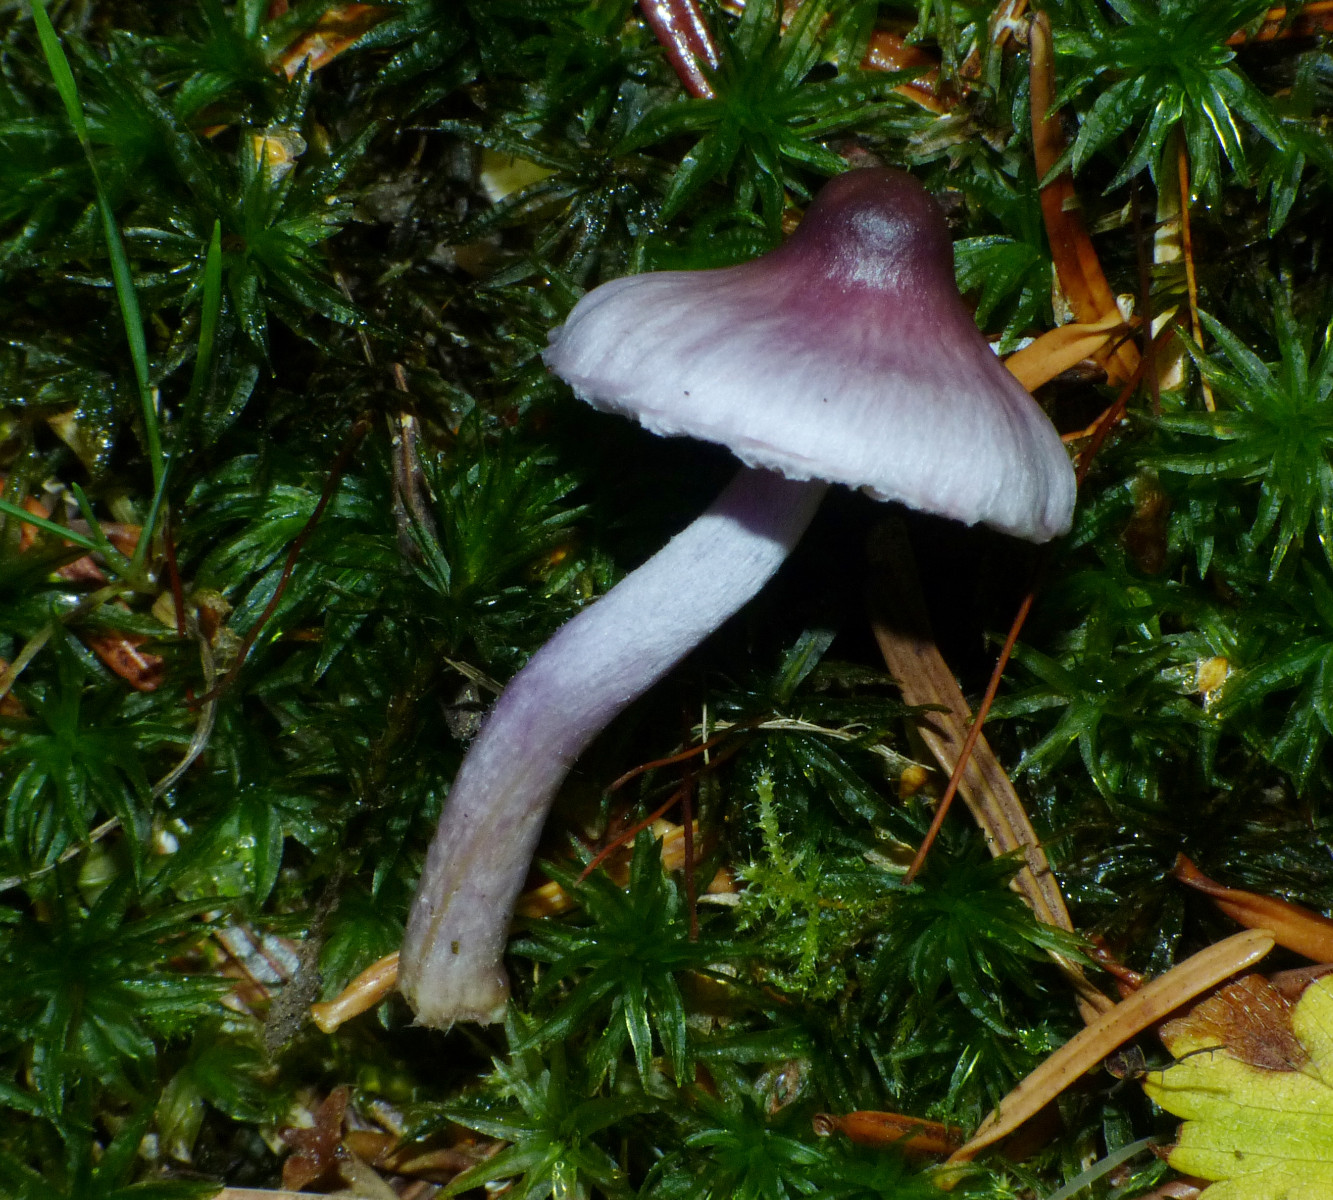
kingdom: Fungi
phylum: Basidiomycota
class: Agaricomycetes
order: Agaricales
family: Inocybaceae
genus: Inocybe
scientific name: Inocybe geophylla
